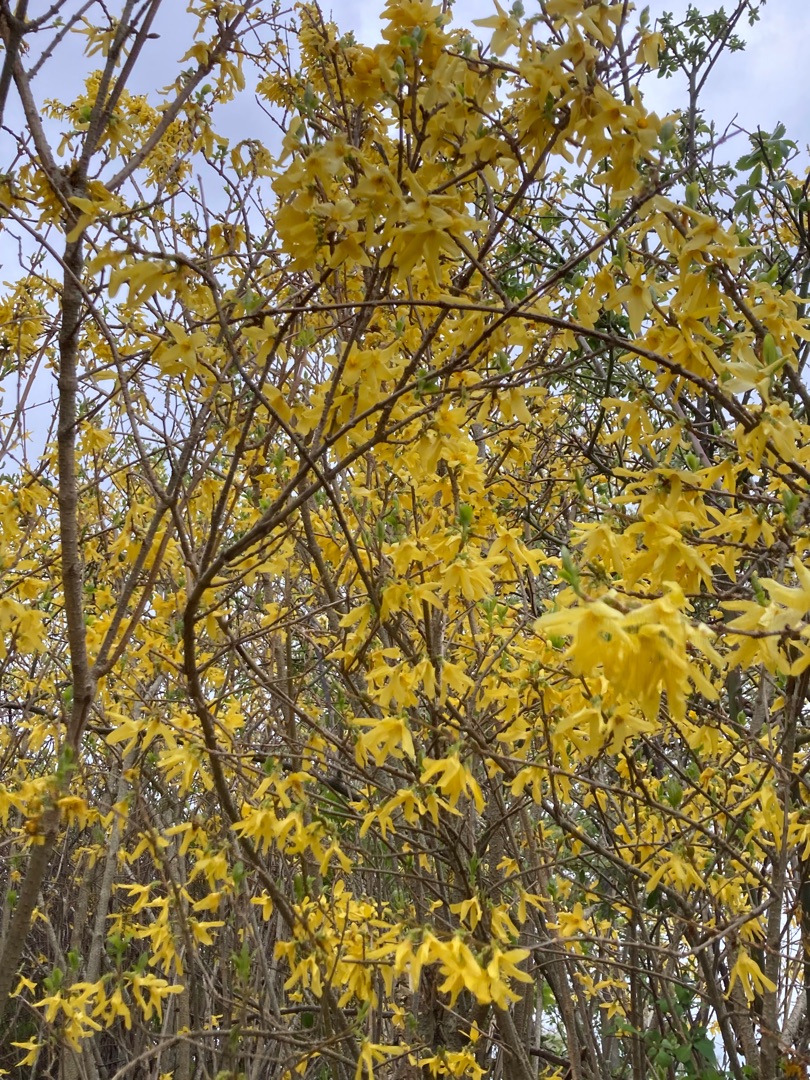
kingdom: Plantae
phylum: Tracheophyta
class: Magnoliopsida
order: Lamiales
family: Oleaceae
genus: Forsythia
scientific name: Forsythia intermedia
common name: Have-forsythia
